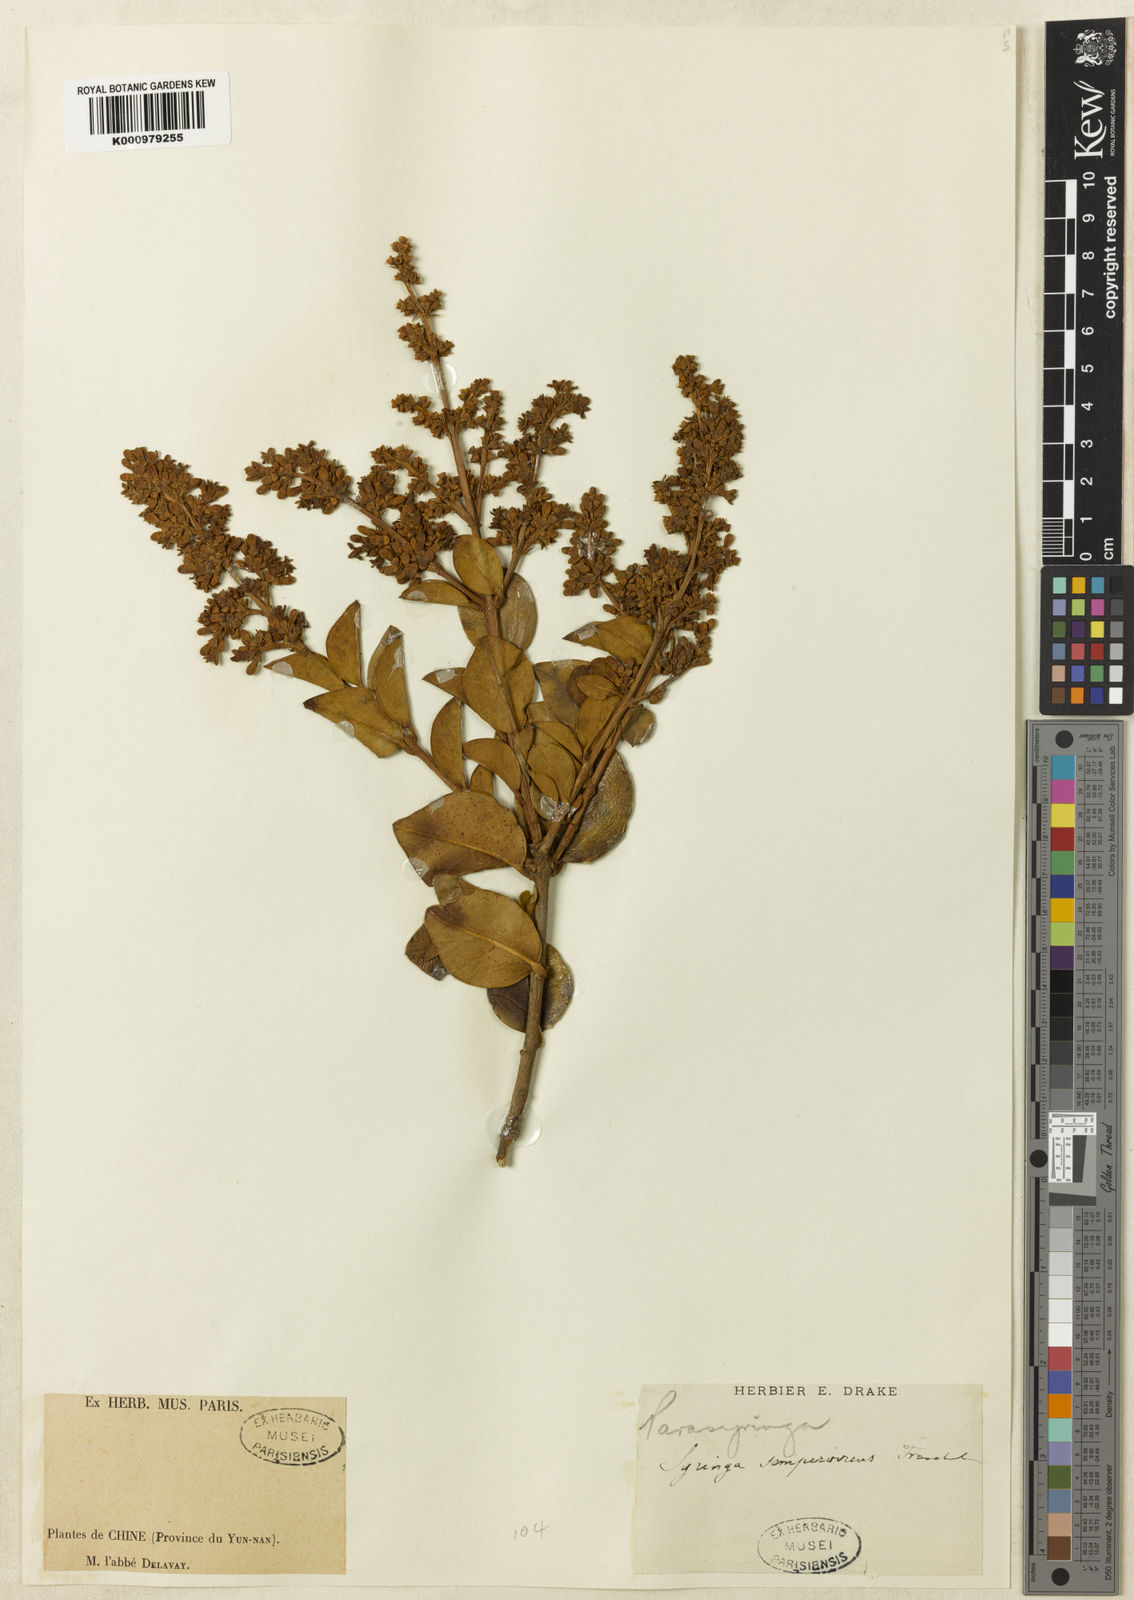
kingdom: Plantae
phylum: Tracheophyta
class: Magnoliopsida
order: Lamiales
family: Oleaceae
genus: Ligustrum
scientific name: Ligustrum sempervirens
